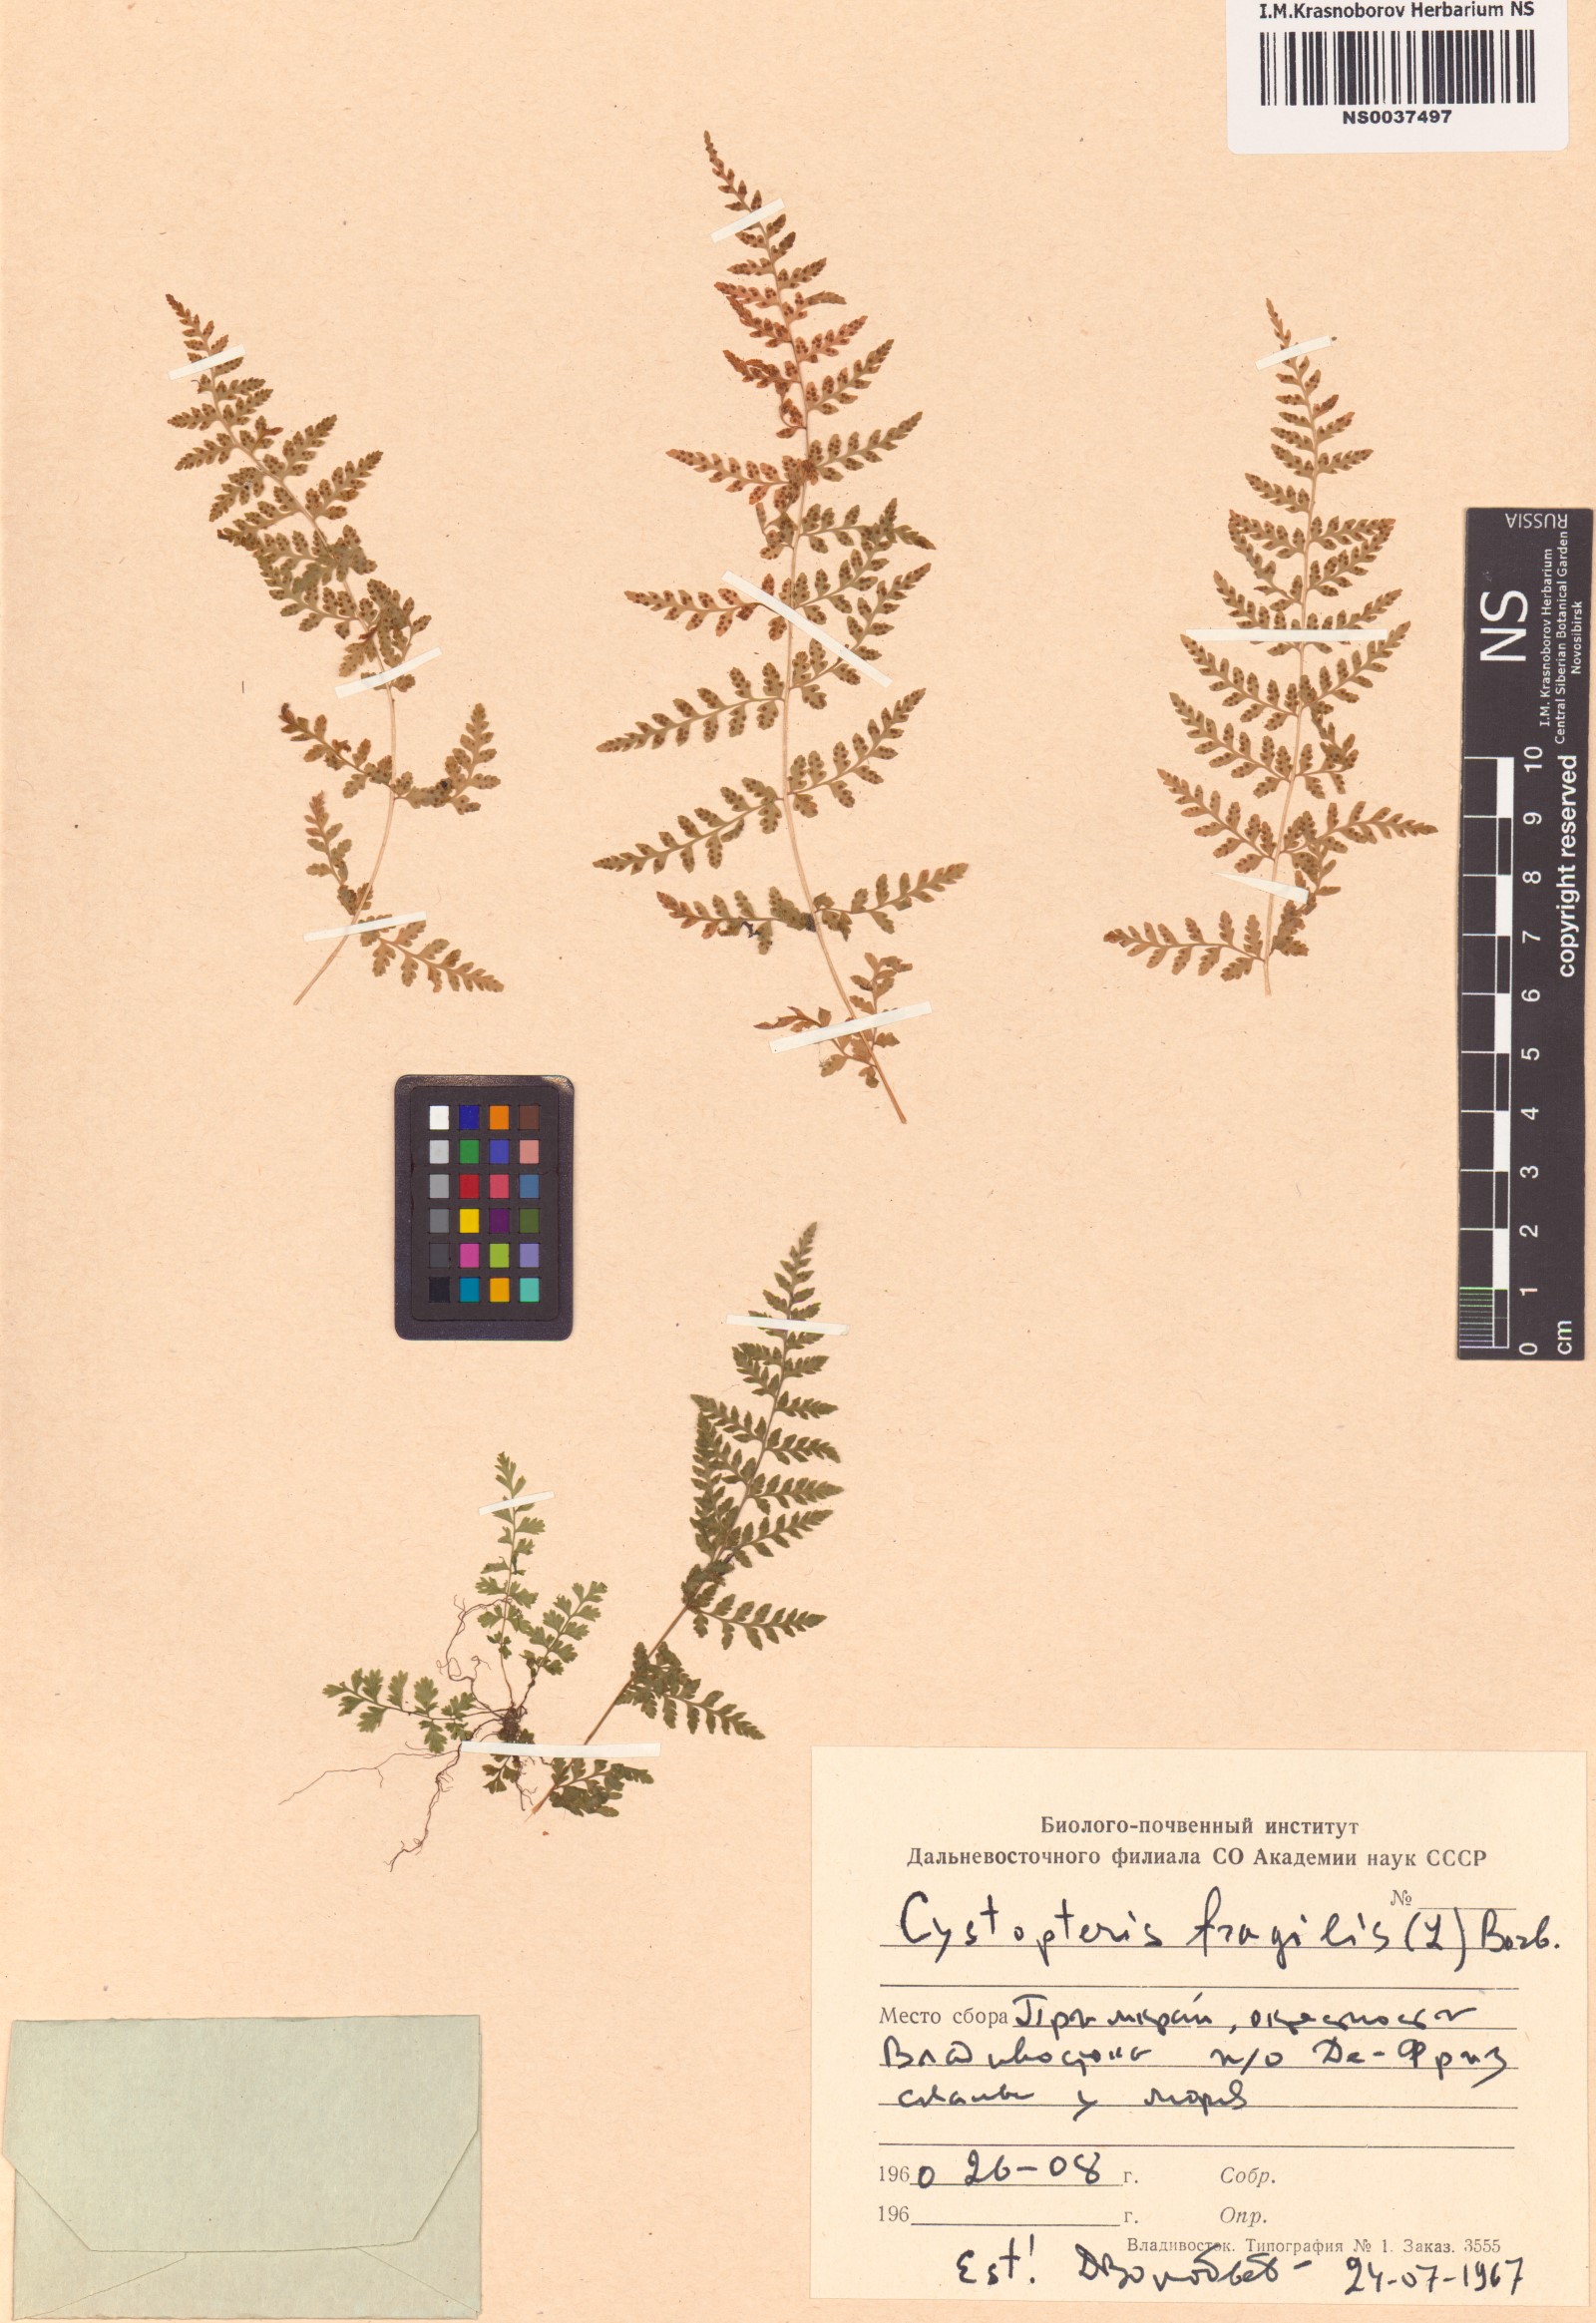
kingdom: Plantae
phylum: Tracheophyta
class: Polypodiopsida
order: Polypodiales
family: Cystopteridaceae
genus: Cystopteris
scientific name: Cystopteris fragilis
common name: Brittle bladder fern
